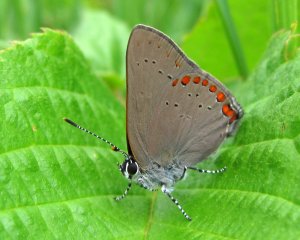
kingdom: Animalia
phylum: Arthropoda
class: Insecta
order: Lepidoptera
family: Lycaenidae
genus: Harkenclenus
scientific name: Harkenclenus titus
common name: Coral Hairstreak
